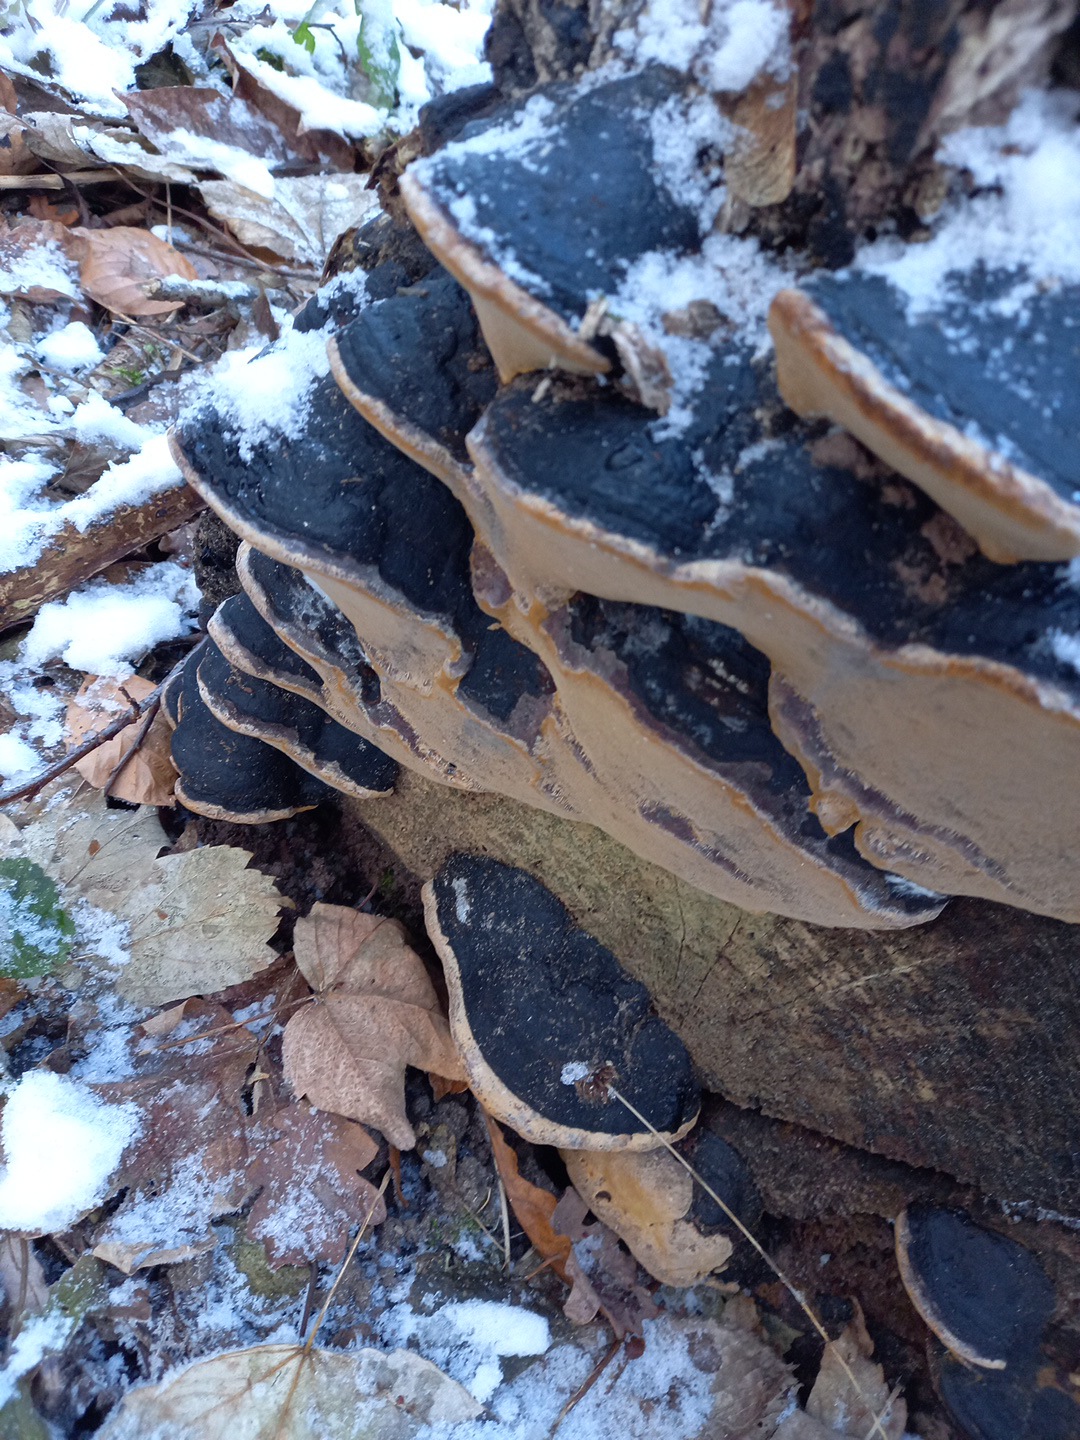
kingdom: Fungi
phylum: Basidiomycota
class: Agaricomycetes
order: Hymenochaetales
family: Hymenochaetaceae
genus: Phellinus
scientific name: Phellinus igniarius
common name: almindelig ildporesvamp
